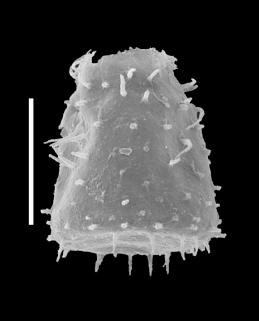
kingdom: Protozoa
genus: Belonechitina
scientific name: Belonechitina
